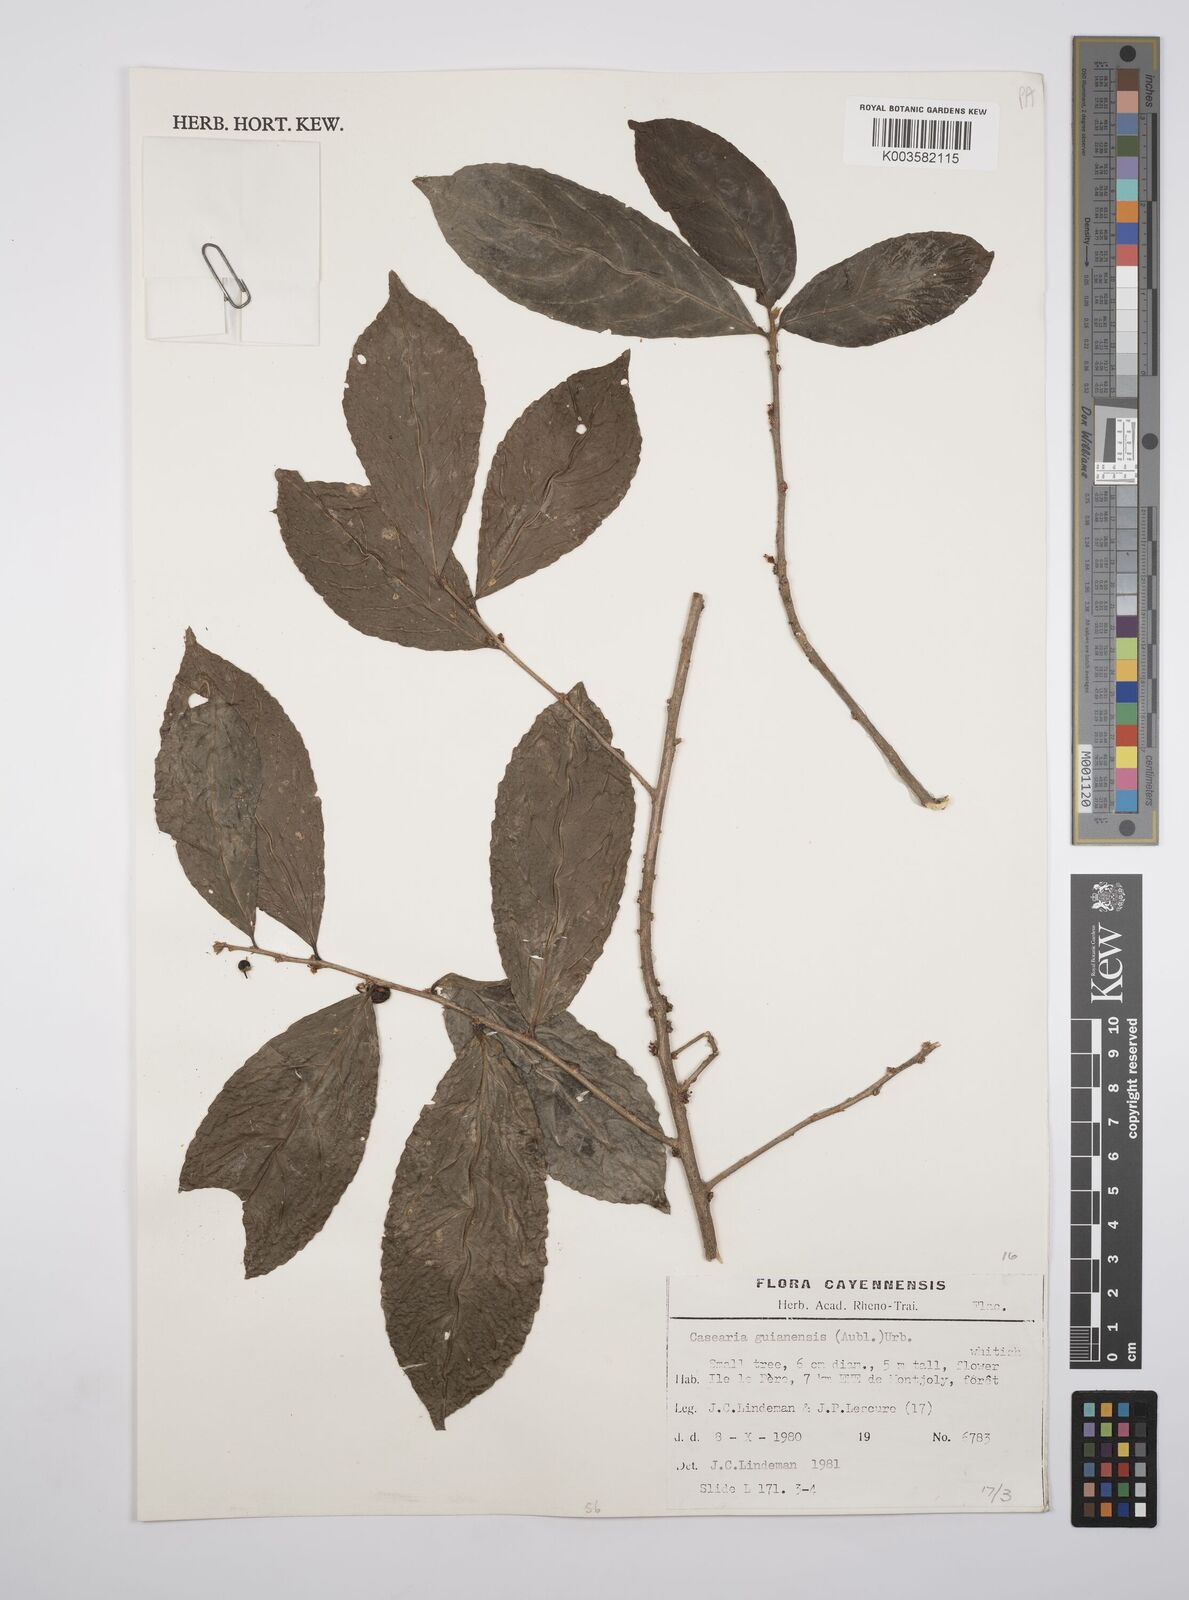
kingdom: Plantae
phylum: Tracheophyta
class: Magnoliopsida
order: Malpighiales
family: Salicaceae
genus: Casearia
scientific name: Casearia guianensis
